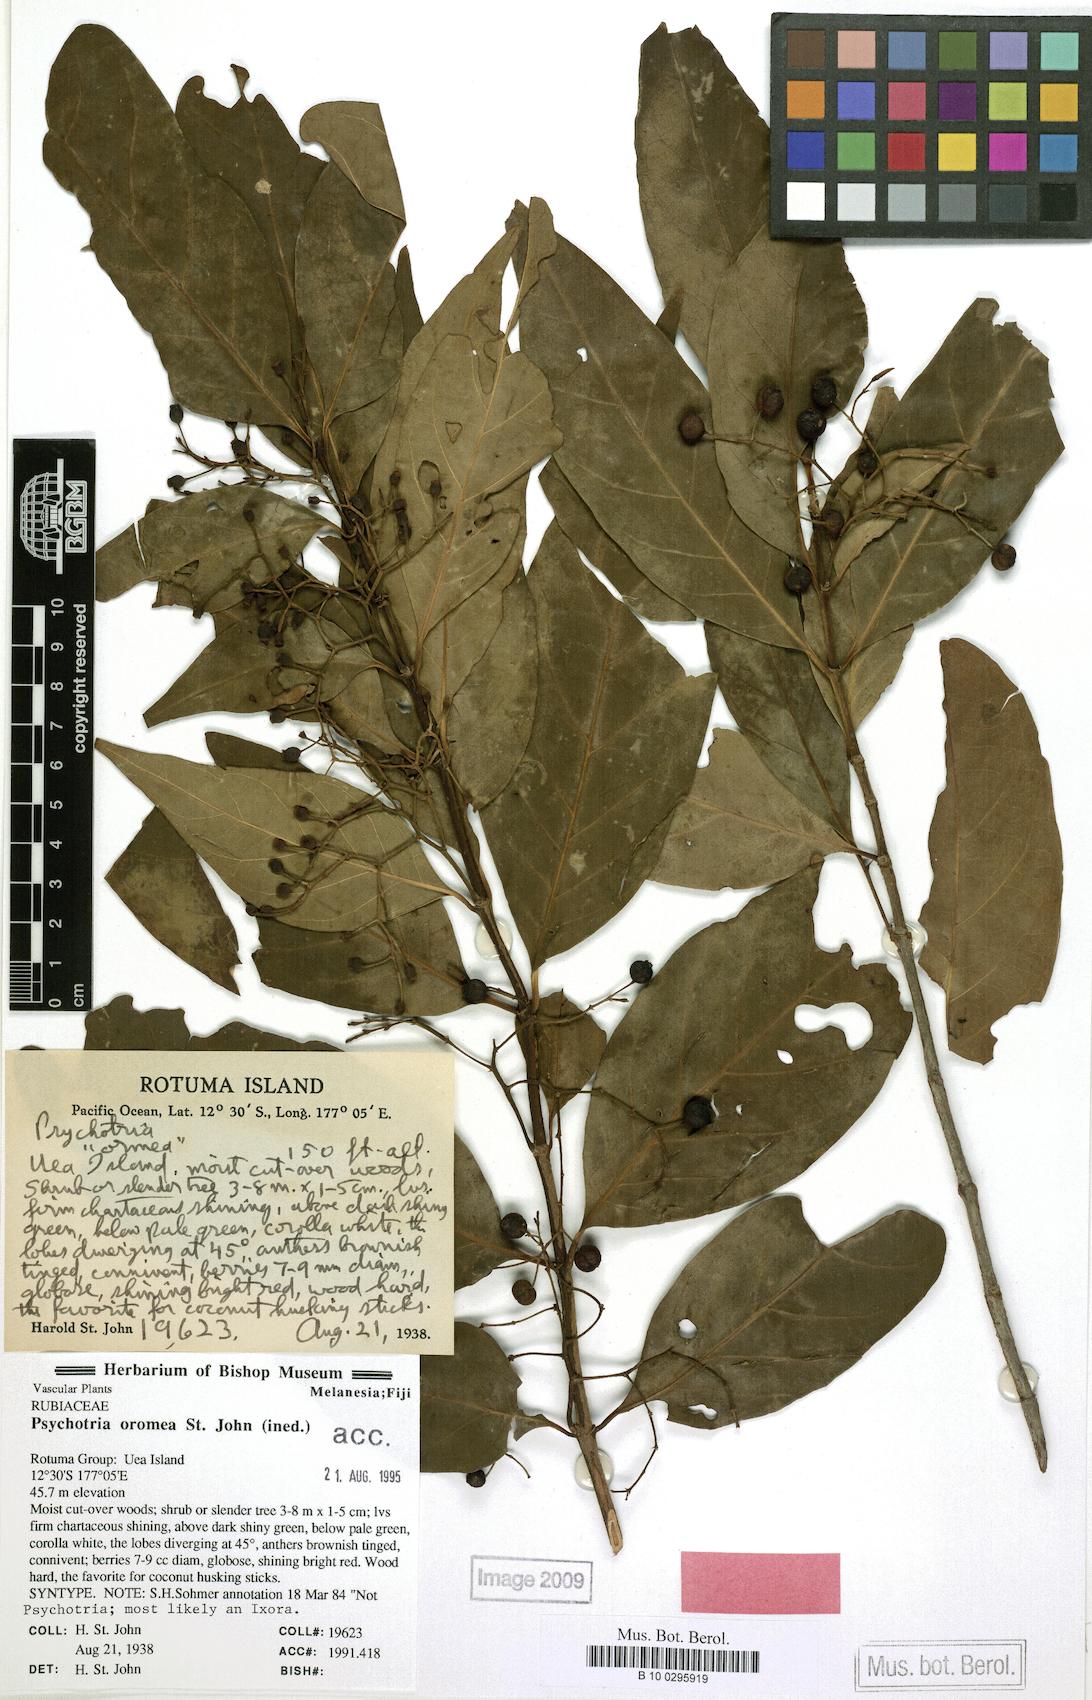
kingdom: Plantae
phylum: Tracheophyta
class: Magnoliopsida
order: Gentianales
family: Rubiaceae
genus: Psychotria
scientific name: Psychotria
